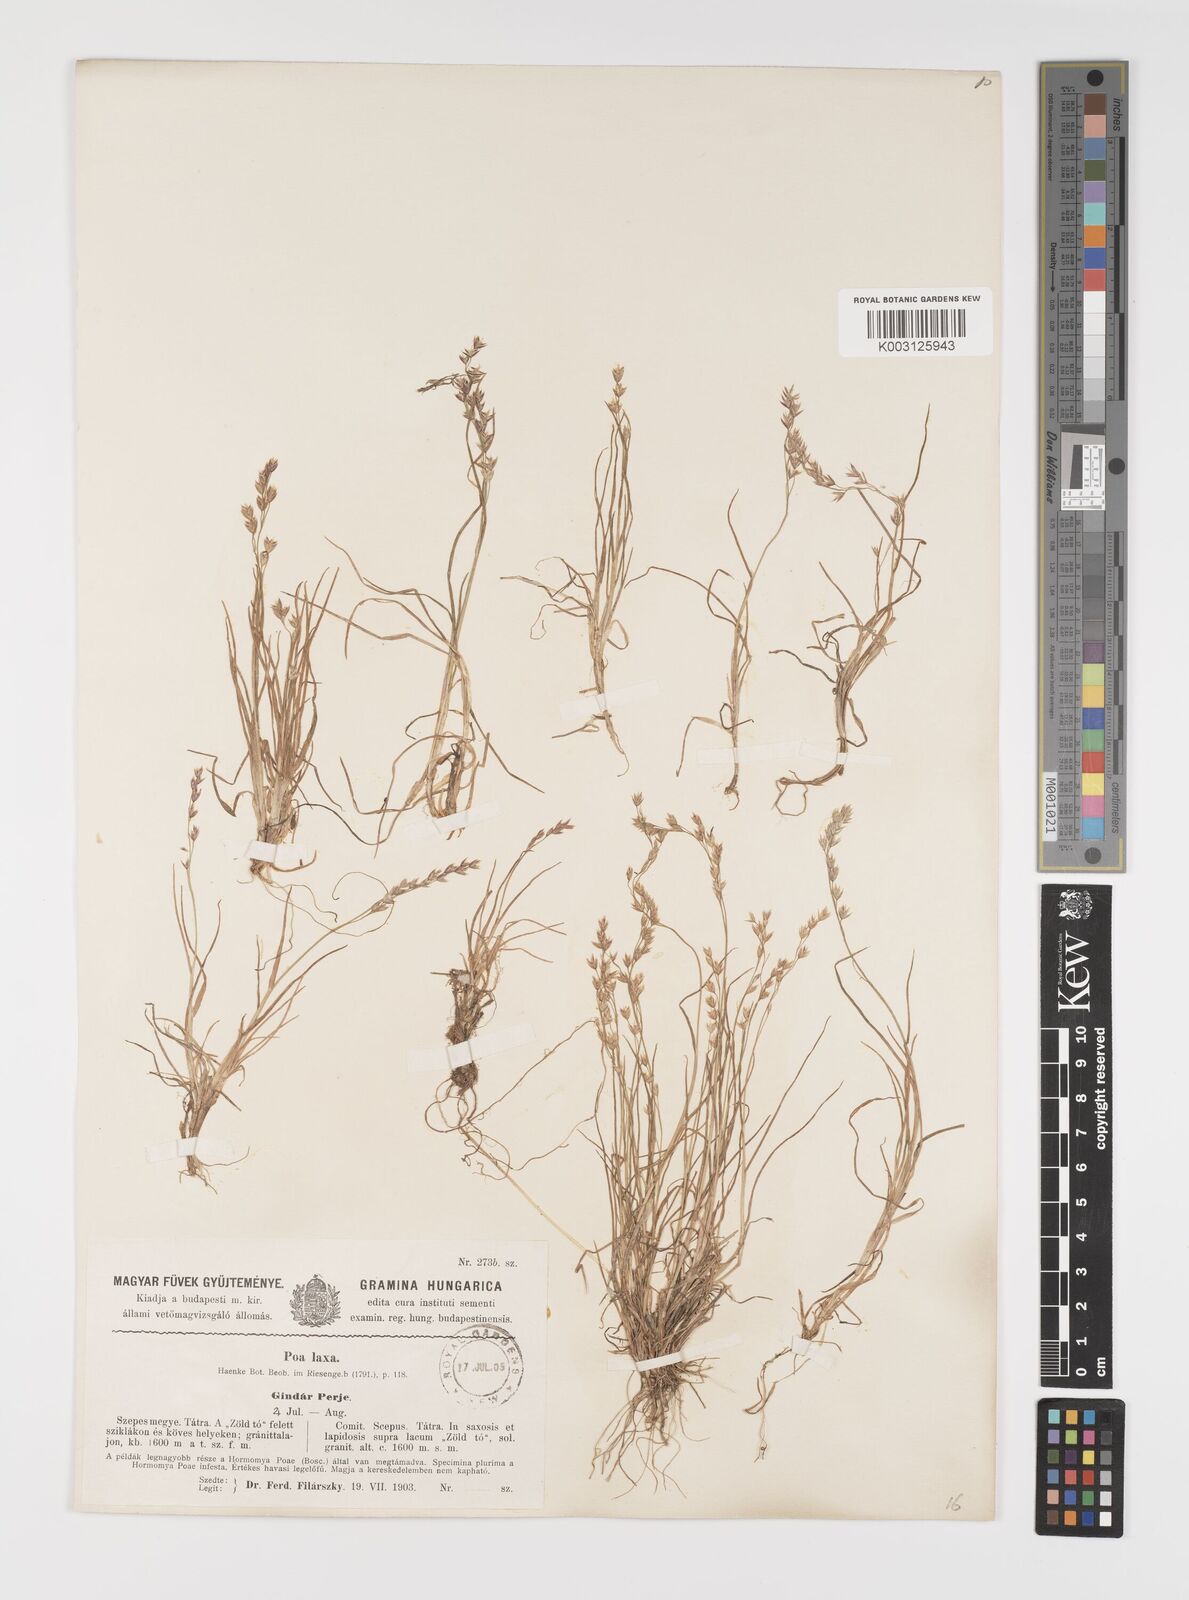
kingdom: Plantae
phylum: Tracheophyta
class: Liliopsida
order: Poales
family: Poaceae
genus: Poa
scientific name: Poa laxa
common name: Lax bluegrass
